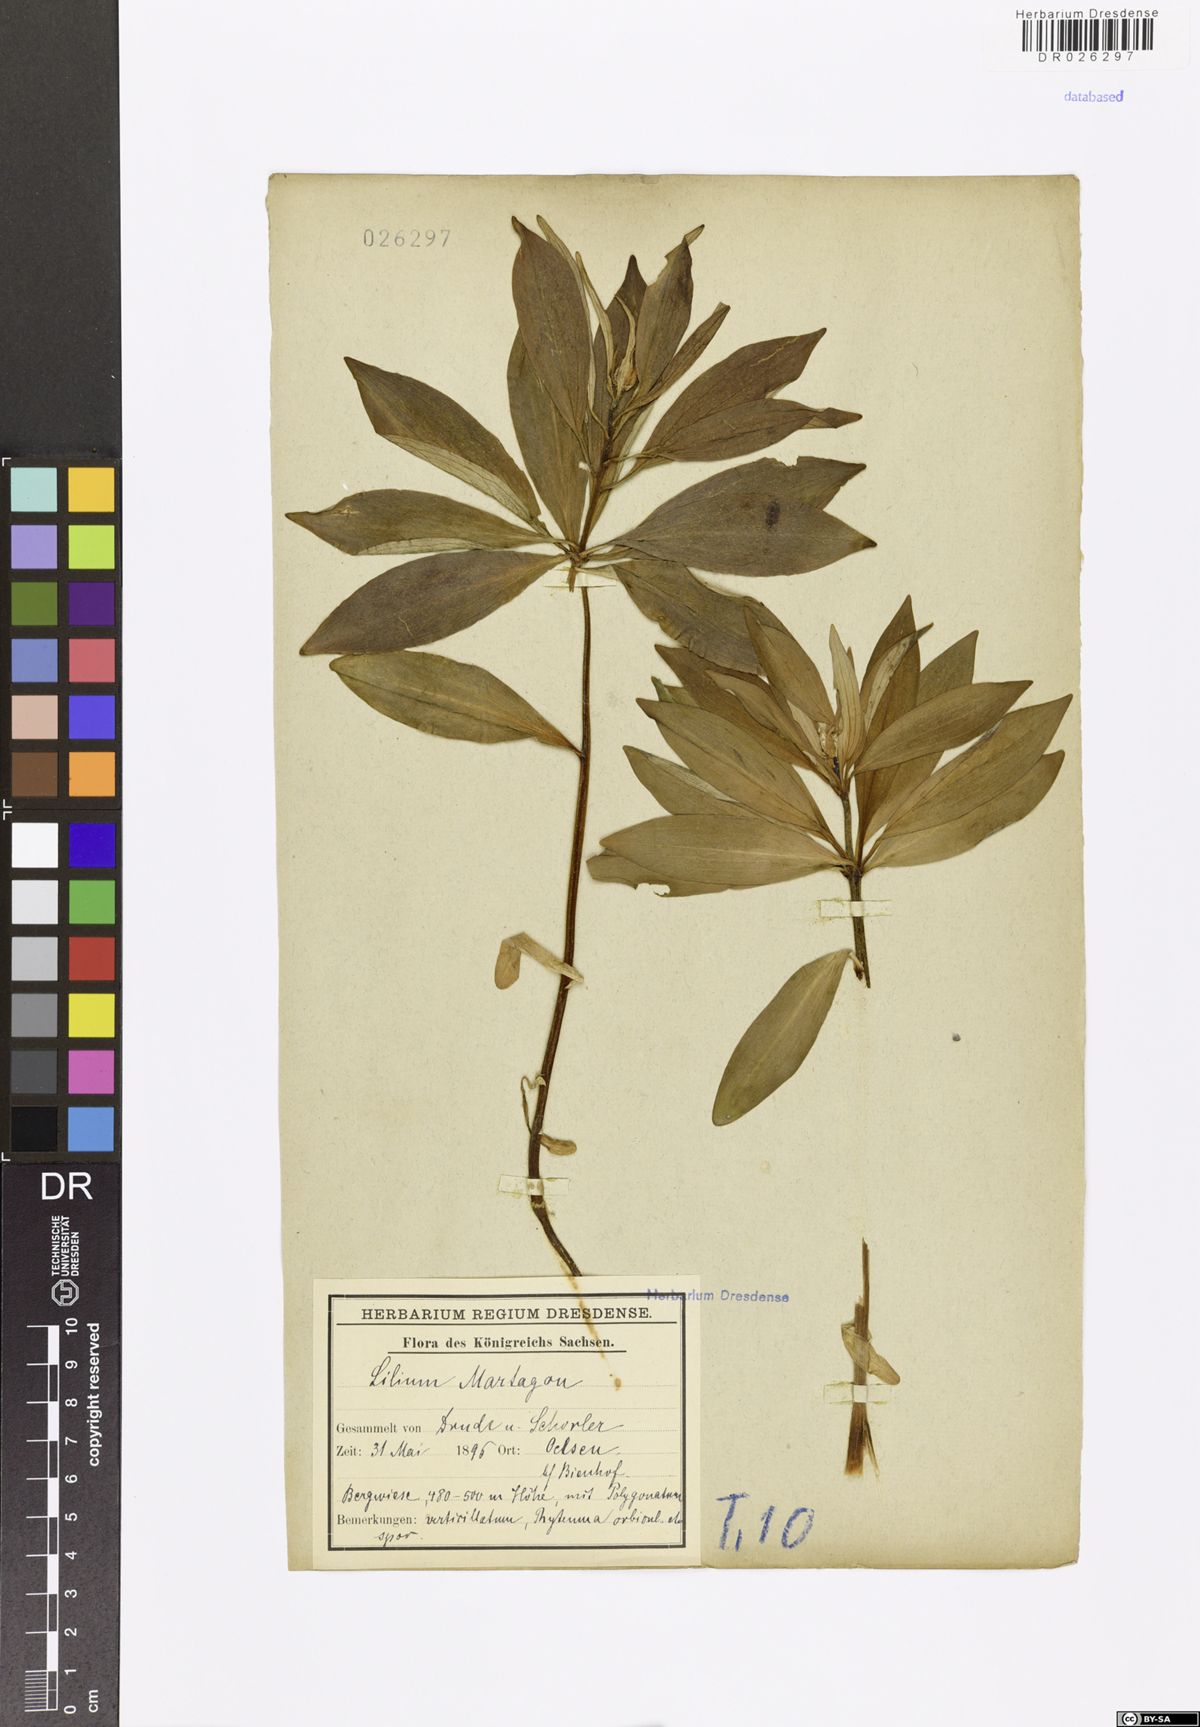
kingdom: Plantae
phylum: Tracheophyta
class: Liliopsida
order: Liliales
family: Liliaceae
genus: Lilium
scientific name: Lilium martagon
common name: Martagon lily
